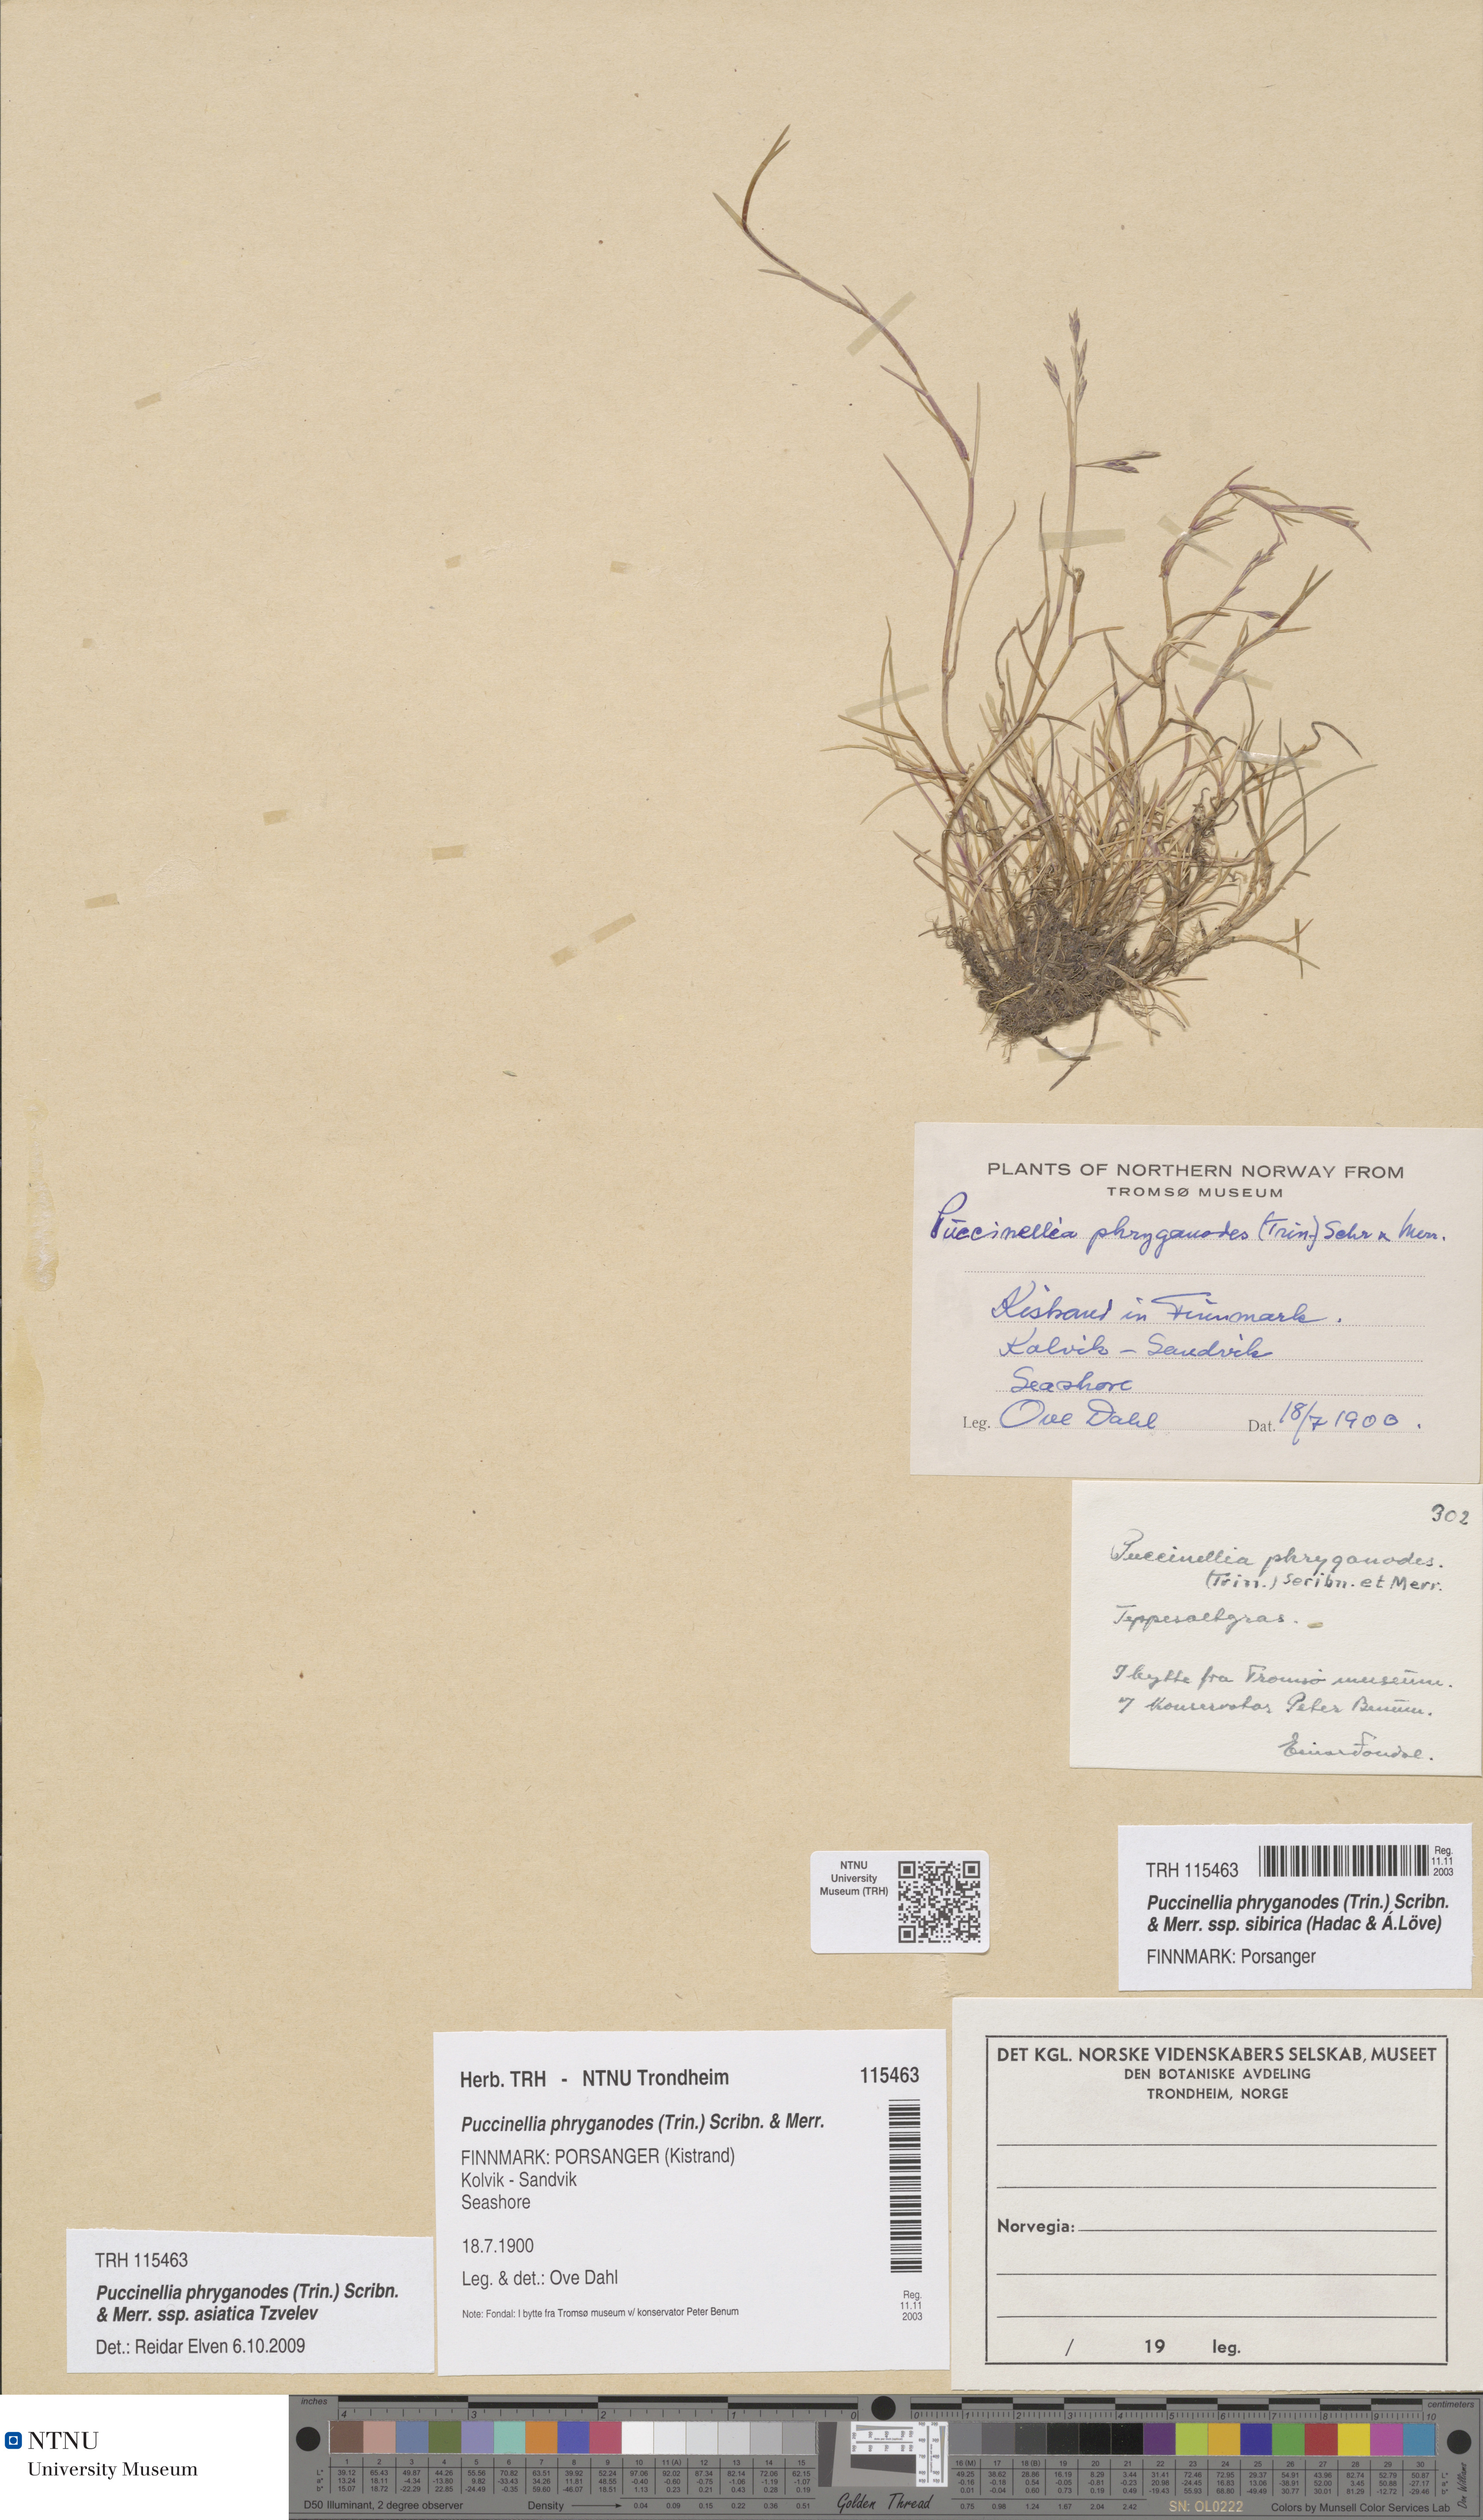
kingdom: Plantae
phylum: Tracheophyta
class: Liliopsida
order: Poales
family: Poaceae
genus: Puccinellia
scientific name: Puccinellia phryganodes
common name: Creeping alkaligrass
